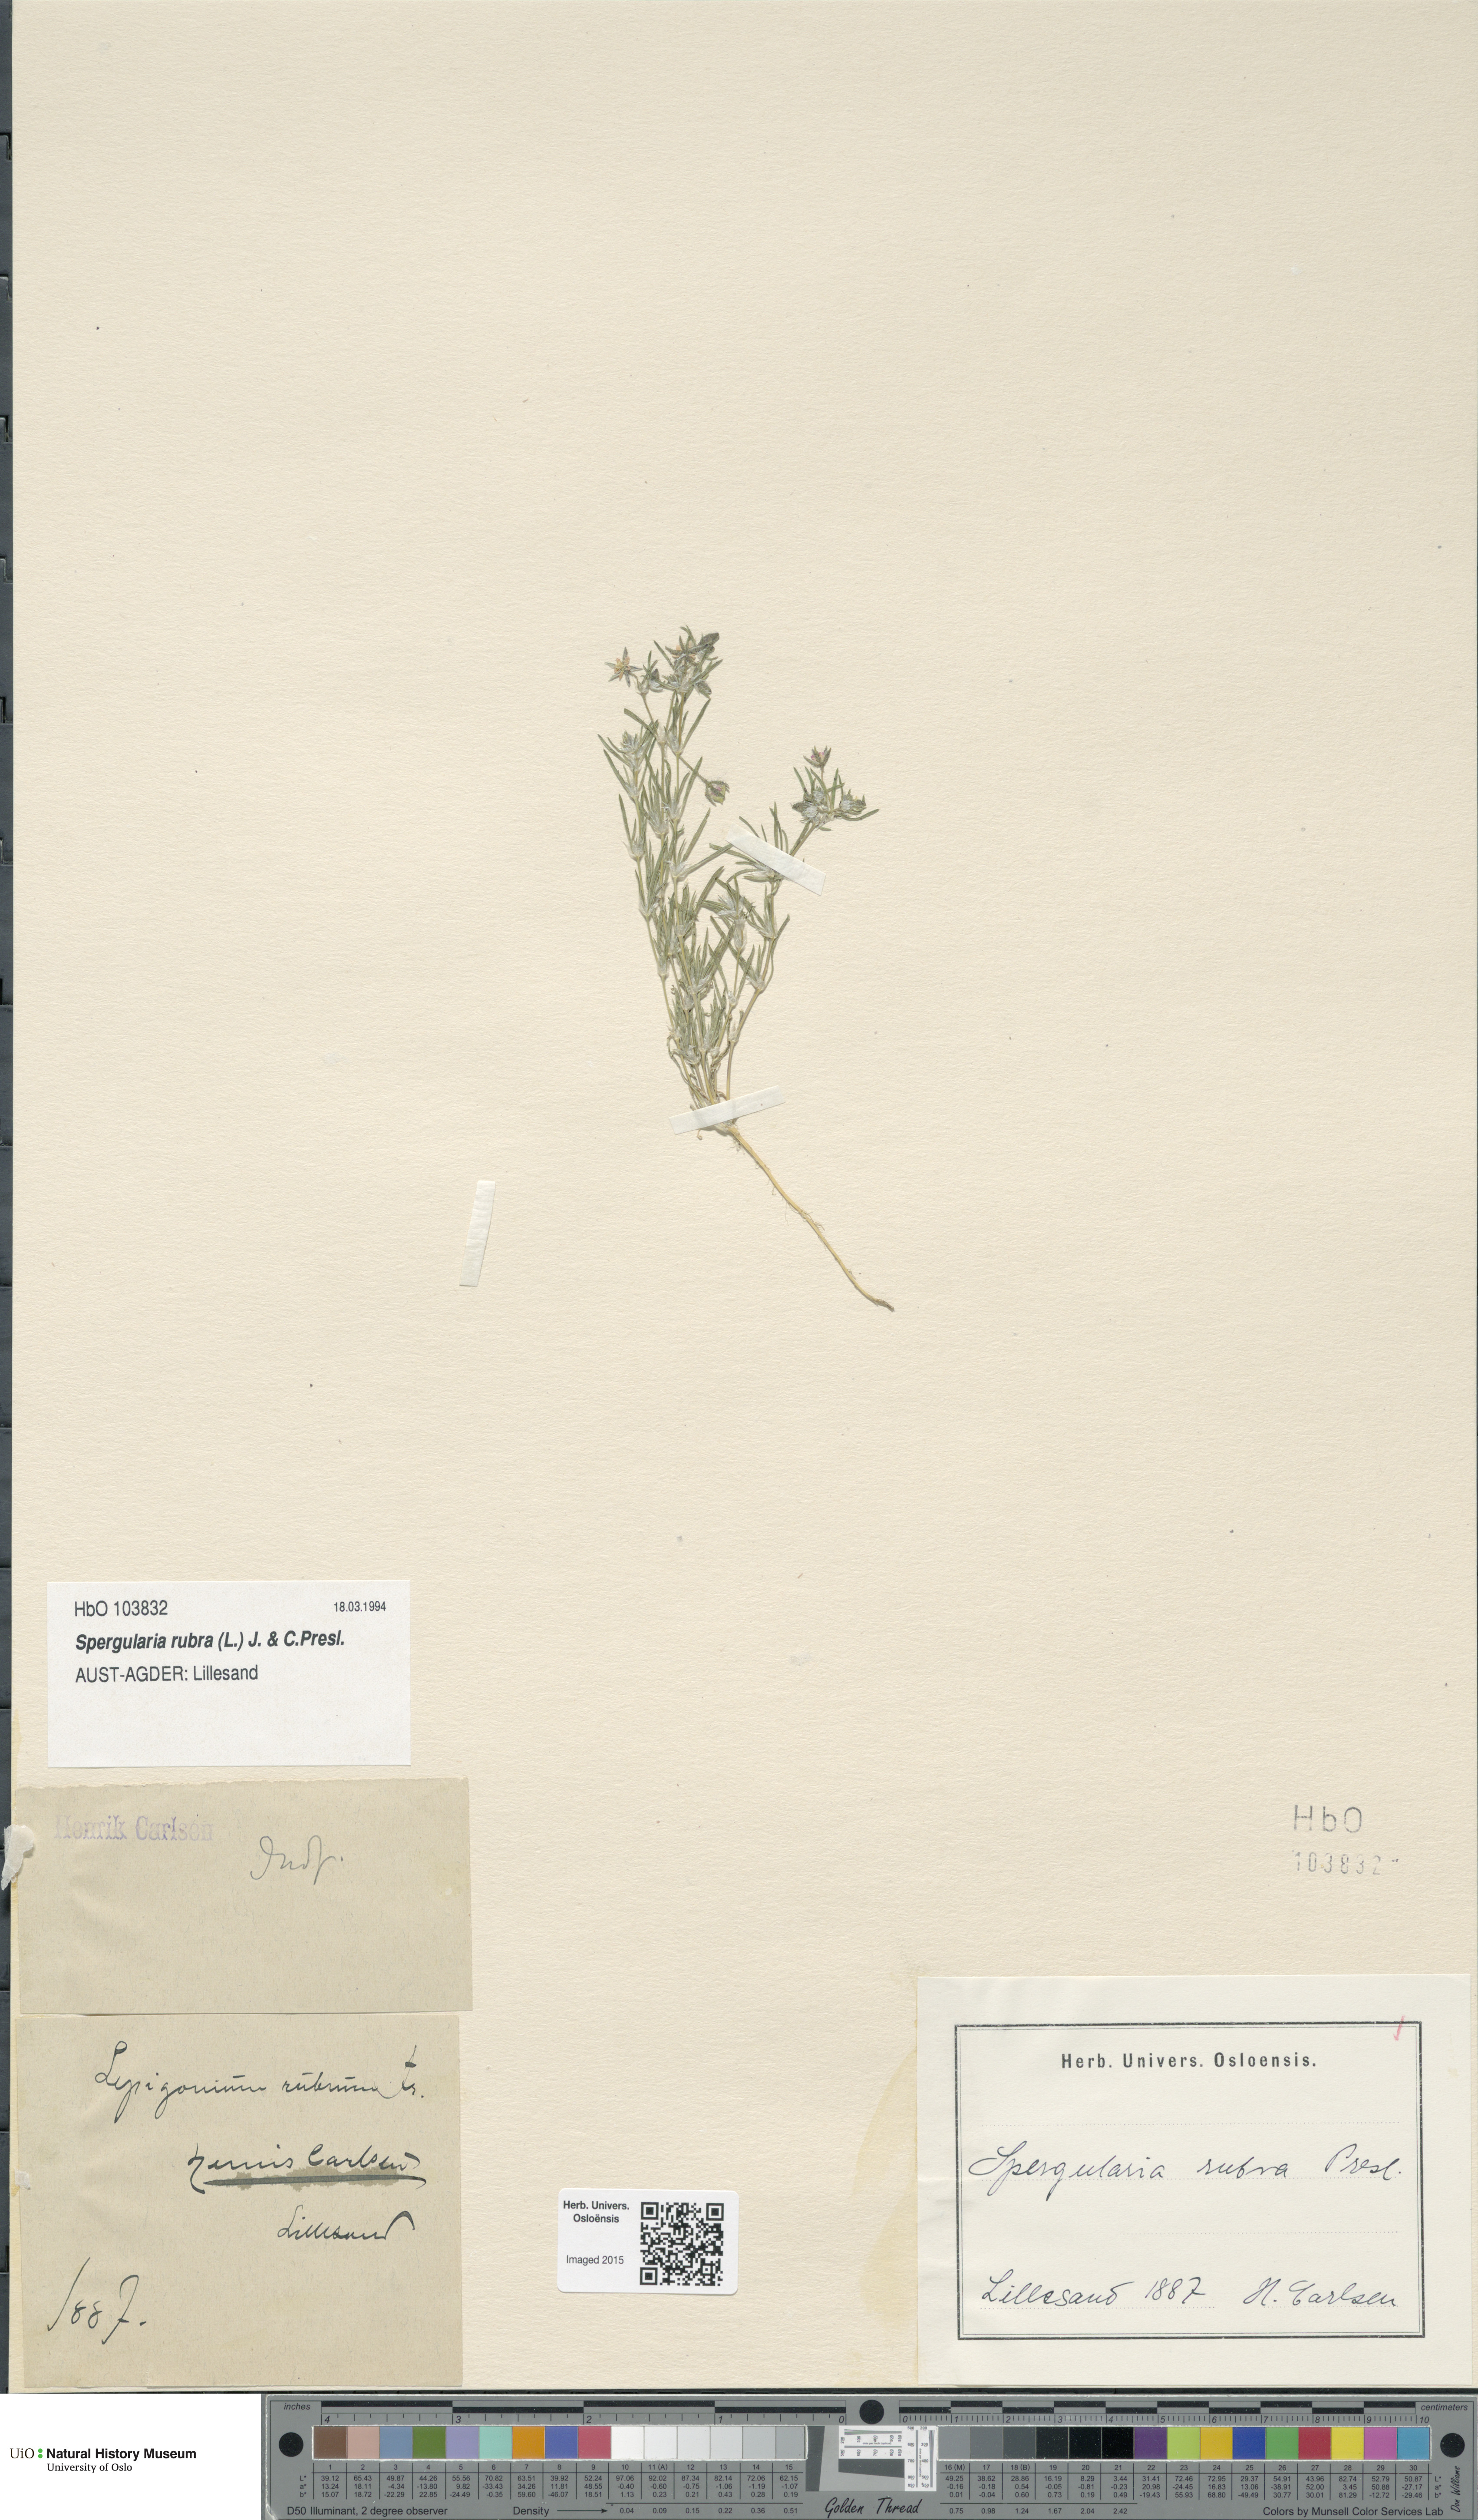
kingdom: Plantae
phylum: Tracheophyta
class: Magnoliopsida
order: Caryophyllales
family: Caryophyllaceae
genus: Spergularia
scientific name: Spergularia rubra
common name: Red sand-spurrey
